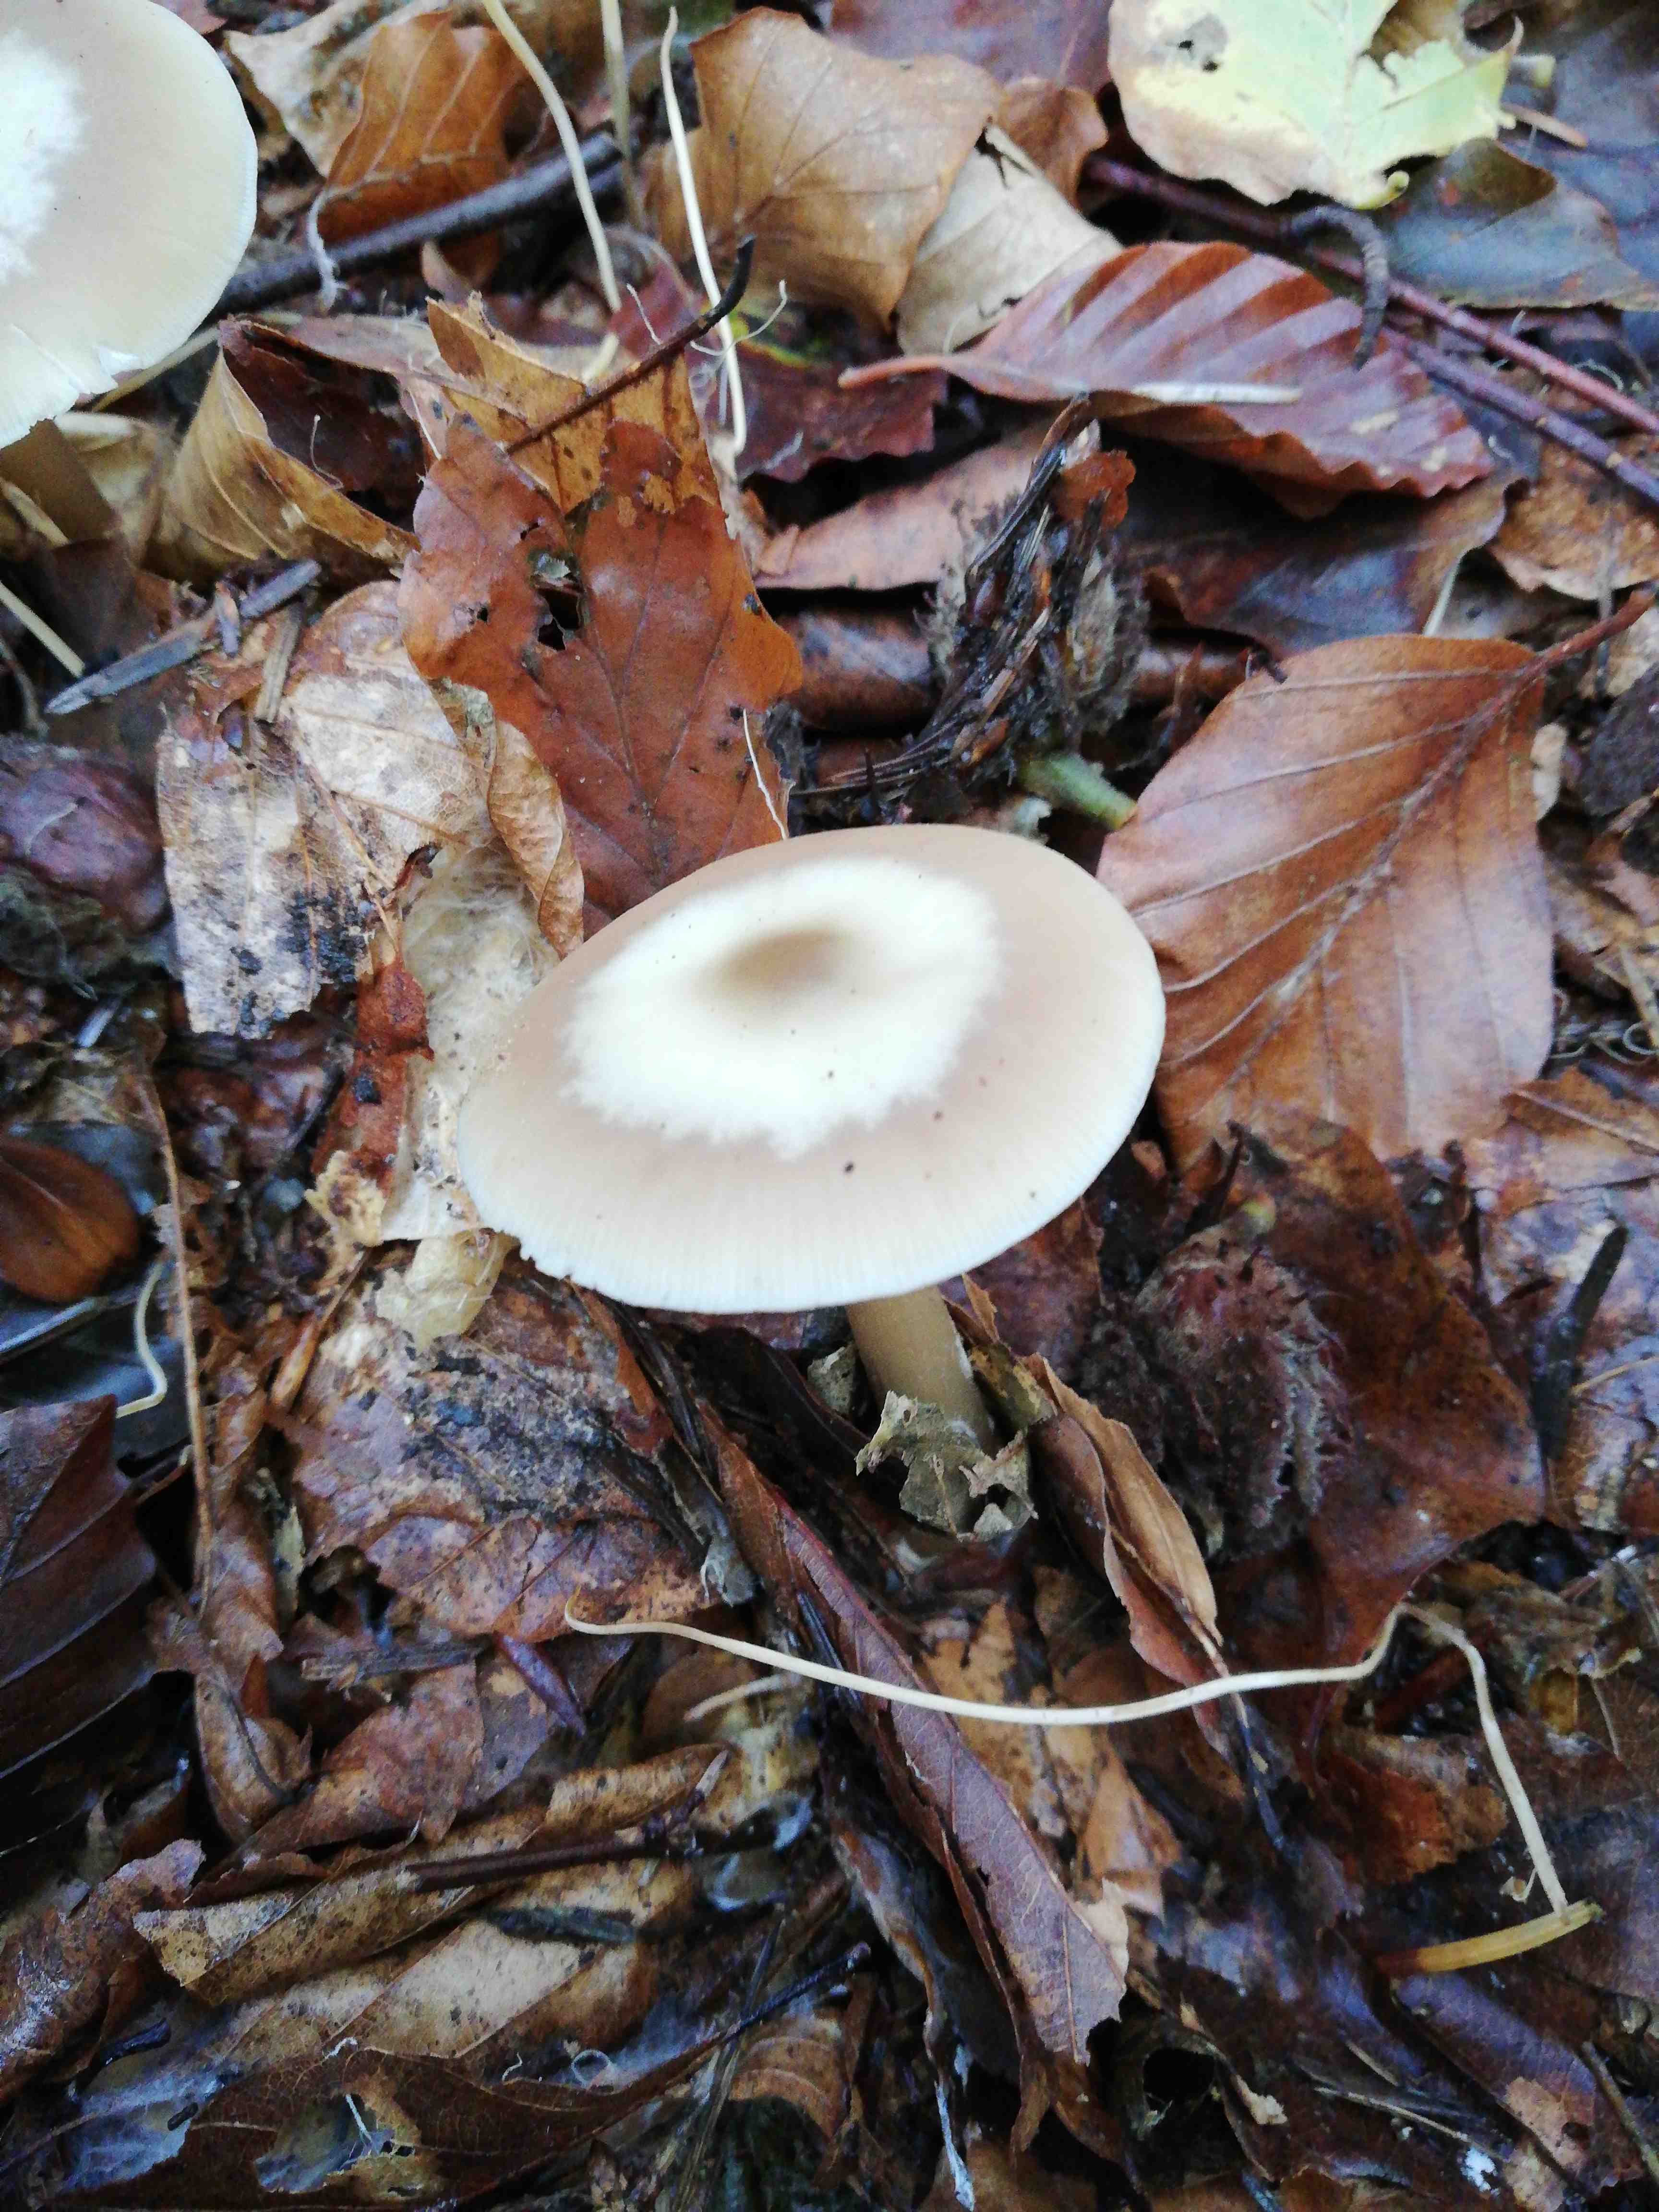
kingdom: Fungi
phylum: Basidiomycota
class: Agaricomycetes
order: Agaricales
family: Omphalotaceae
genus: Rhodocollybia
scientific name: Rhodocollybia asema
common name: horngrå fladhat
